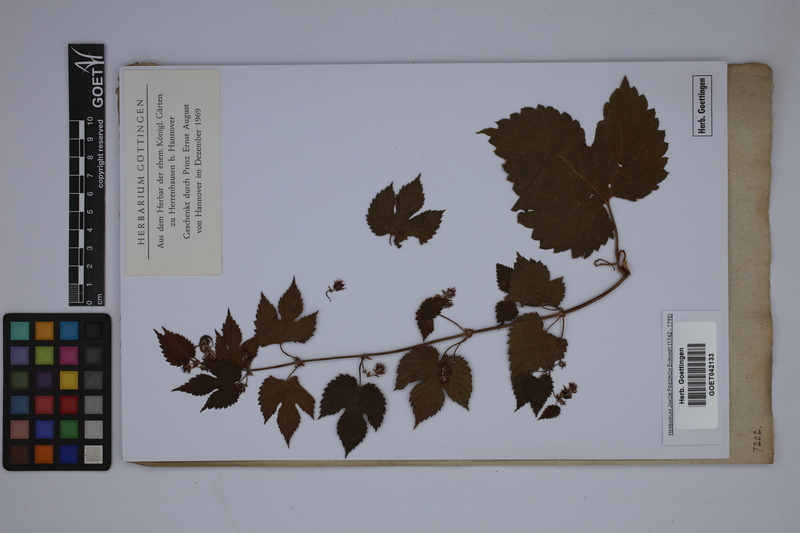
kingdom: Plantae
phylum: Tracheophyta
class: Magnoliopsida
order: Rosales
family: Cannabaceae
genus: Humulus
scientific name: Humulus lupulus
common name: Hop
